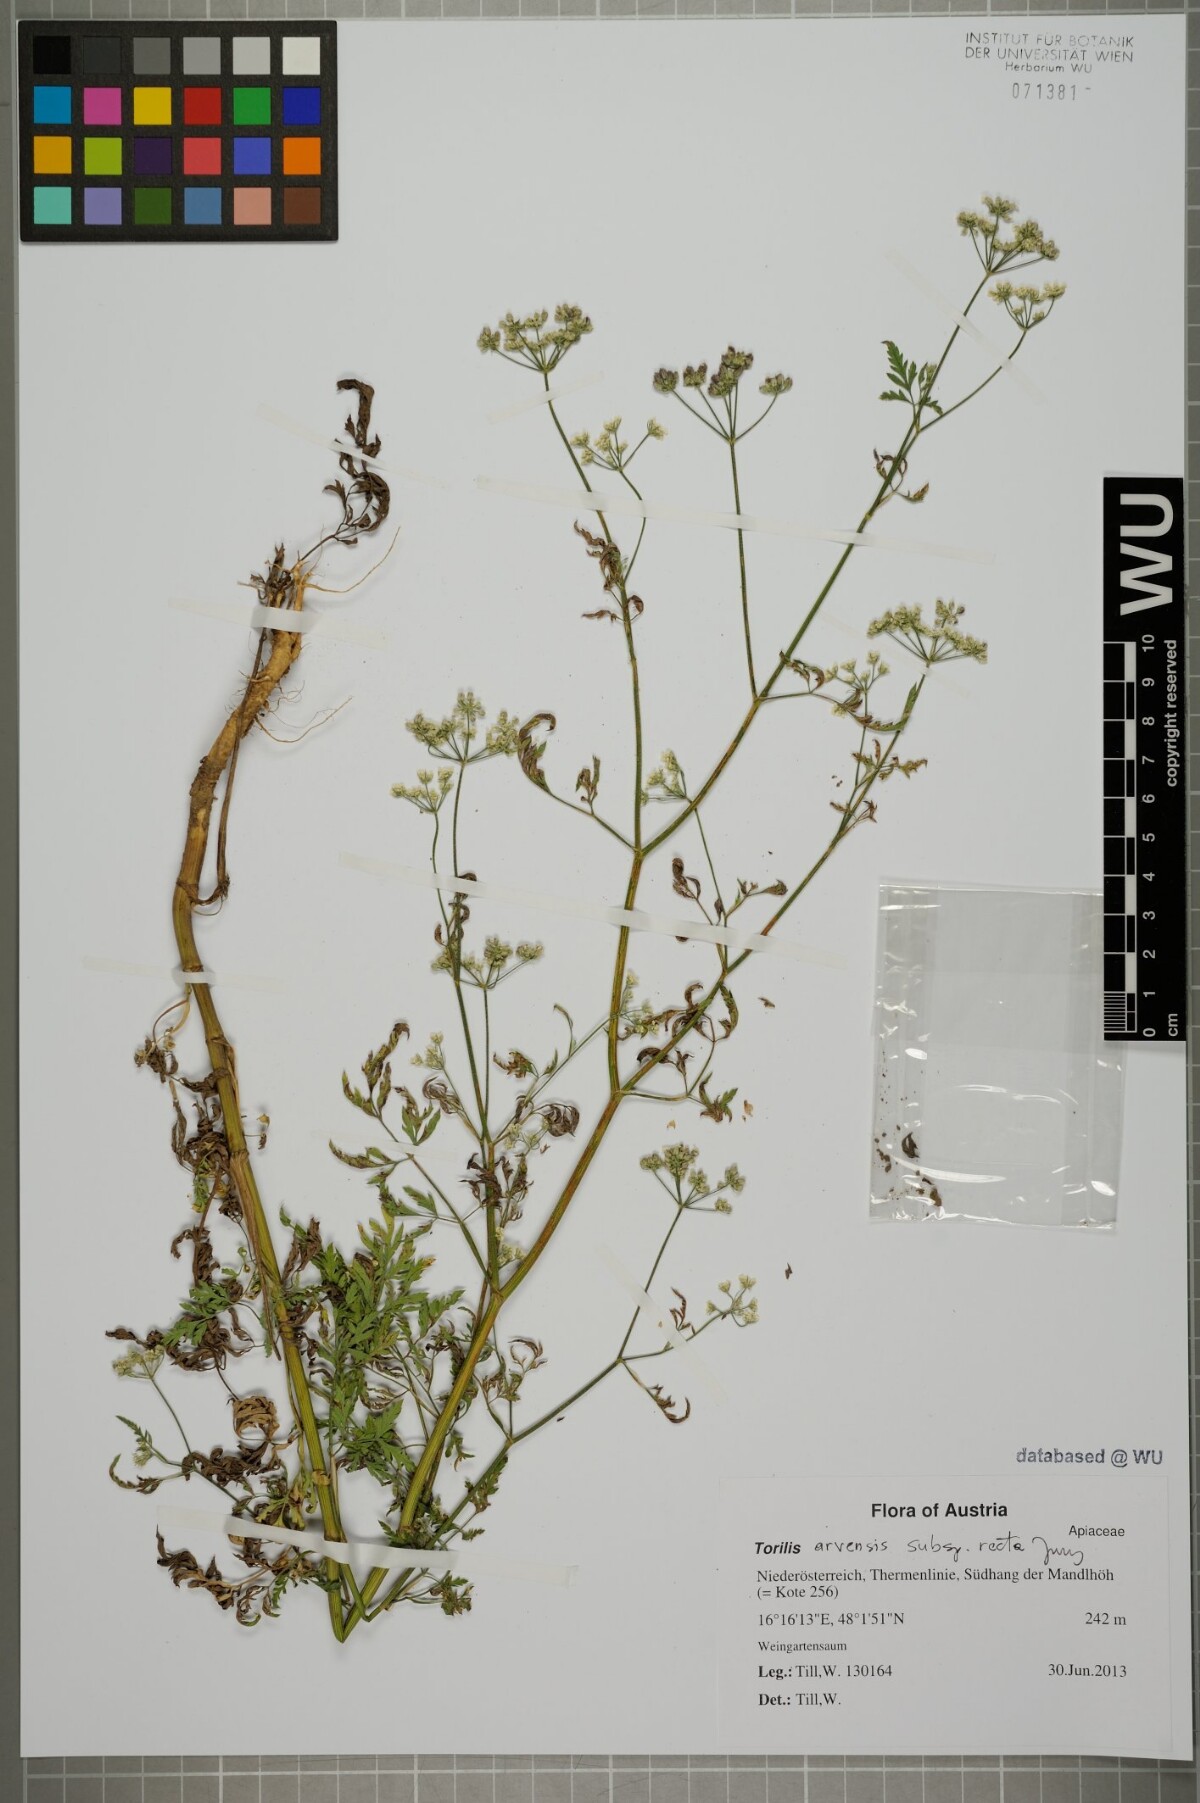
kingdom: Plantae
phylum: Tracheophyta
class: Magnoliopsida
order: Apiales
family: Apiaceae
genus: Torilis
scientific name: Torilis arvensis
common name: Spreading hedge-parsley
